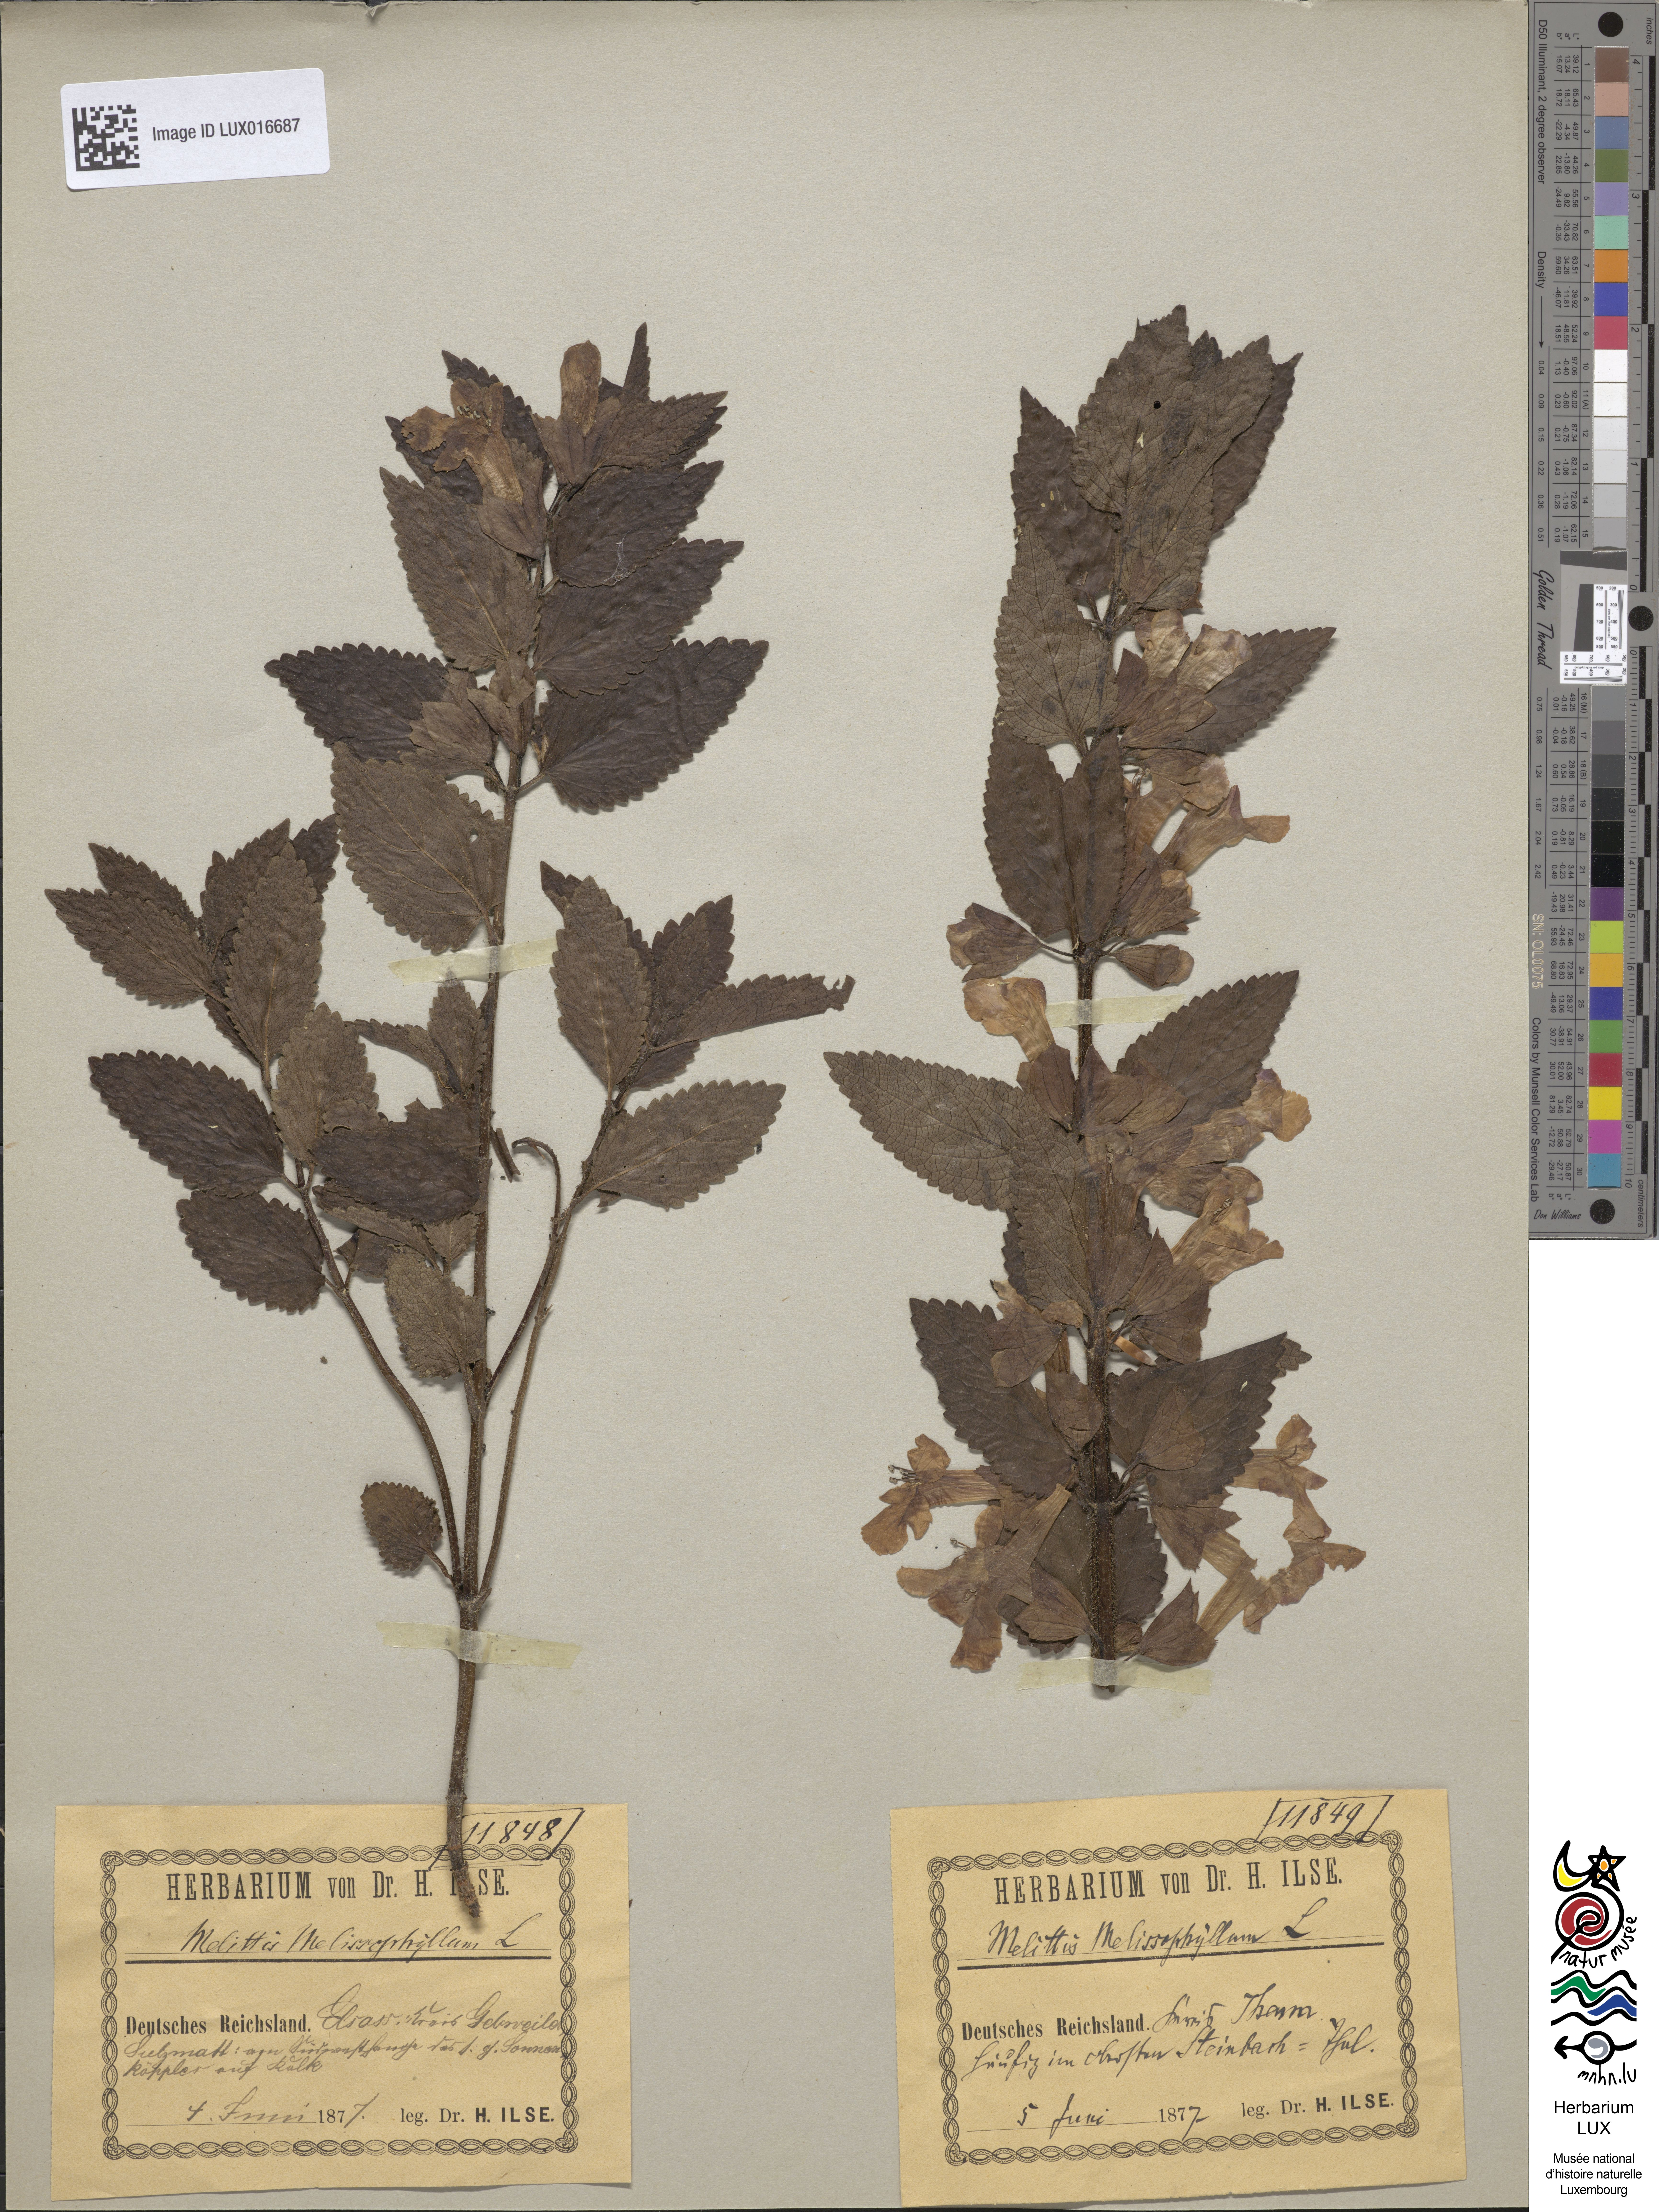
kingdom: Plantae
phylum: Tracheophyta
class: Magnoliopsida
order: Lamiales
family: Lamiaceae
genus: Melittis
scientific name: Melittis melissophyllum
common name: Bastard balm
